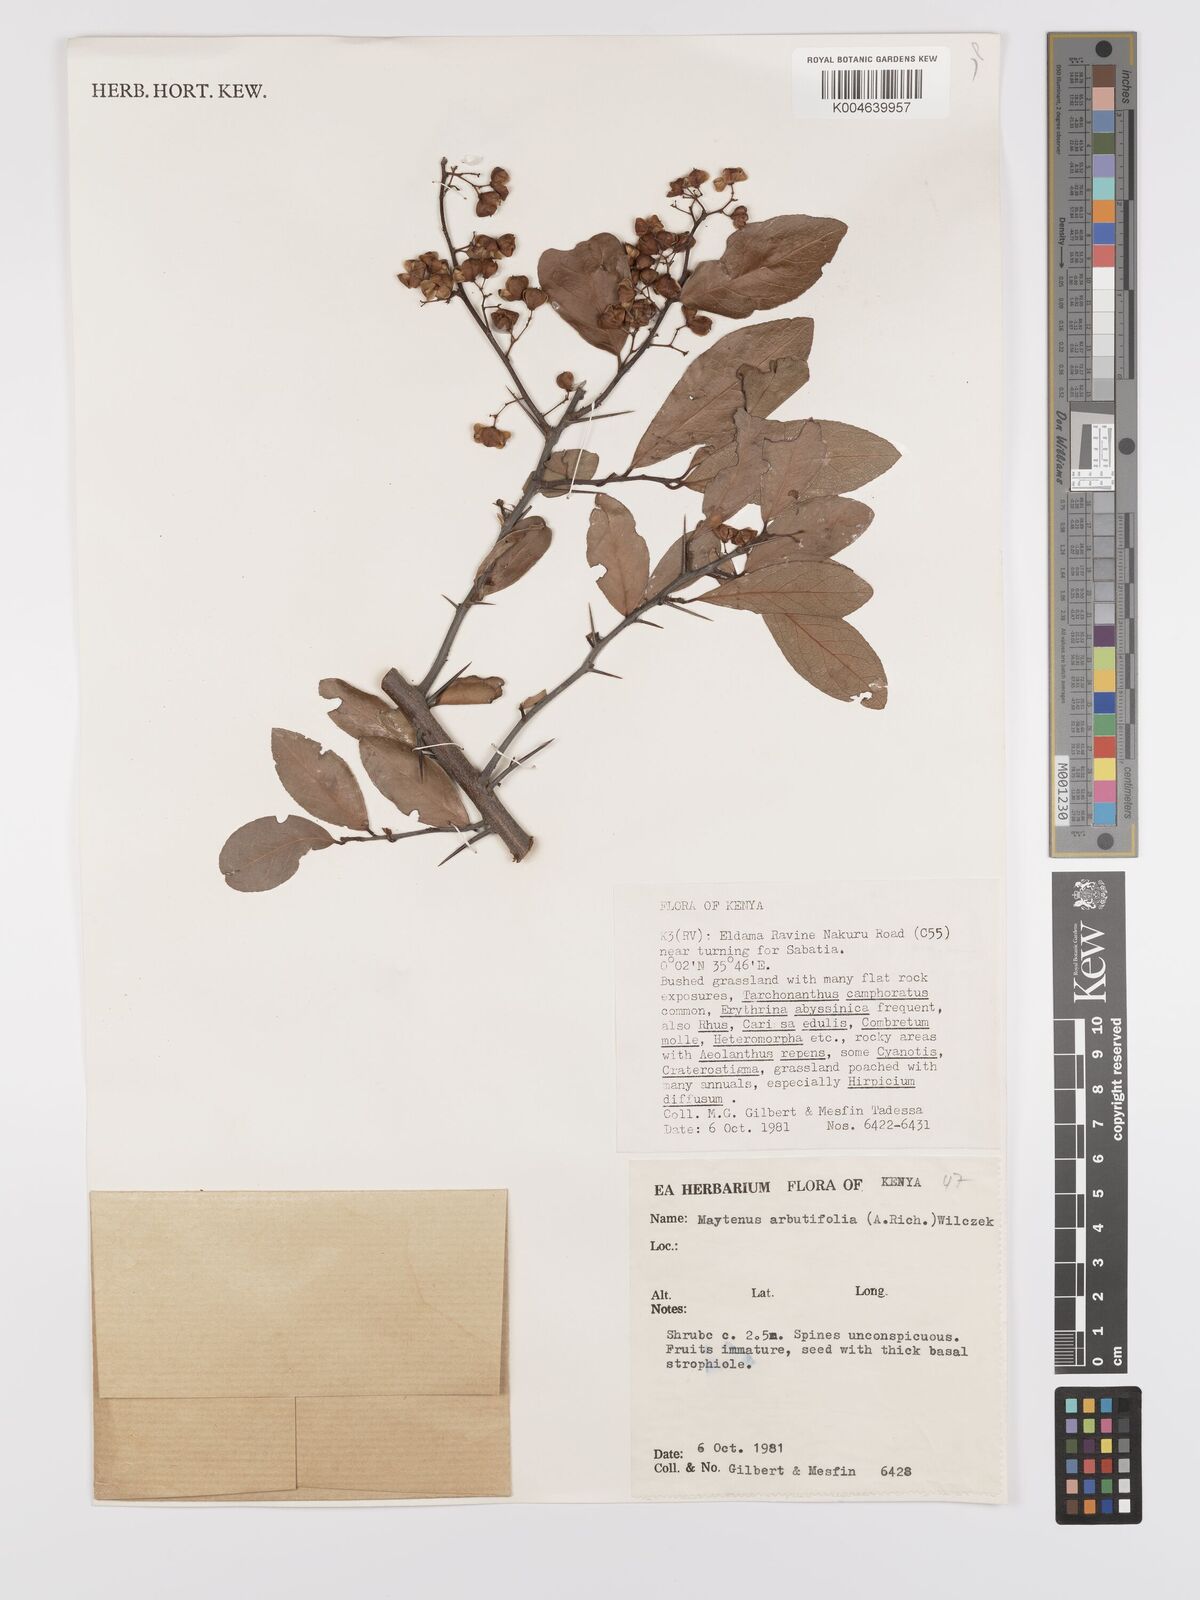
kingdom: Plantae
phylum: Tracheophyta
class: Magnoliopsida
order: Celastrales
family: Celastraceae
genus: Gymnosporia
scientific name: Gymnosporia arbutifolia
